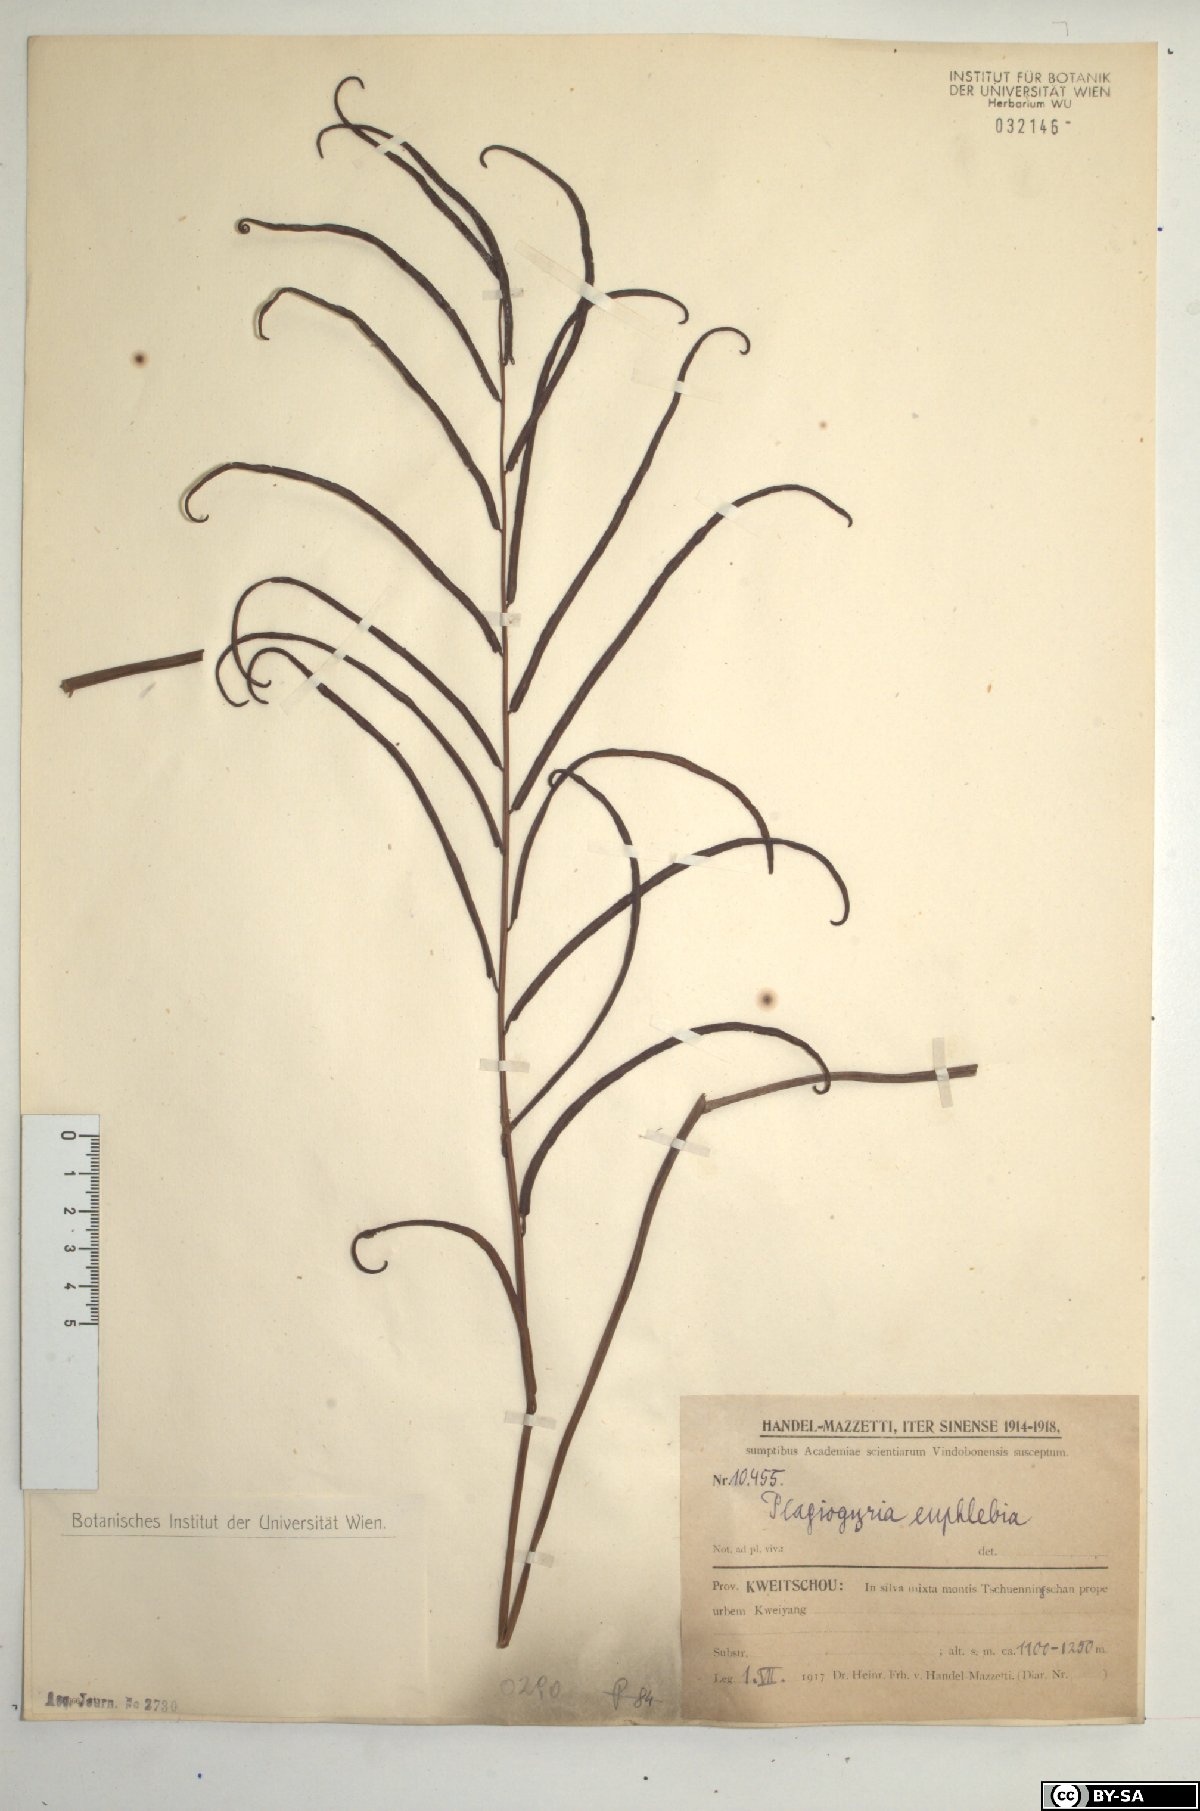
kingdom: Plantae
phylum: Tracheophyta
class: Polypodiopsida
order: Cyatheales
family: Plagiogyriaceae
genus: Plagiogyria
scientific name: Plagiogyria euphlebia
